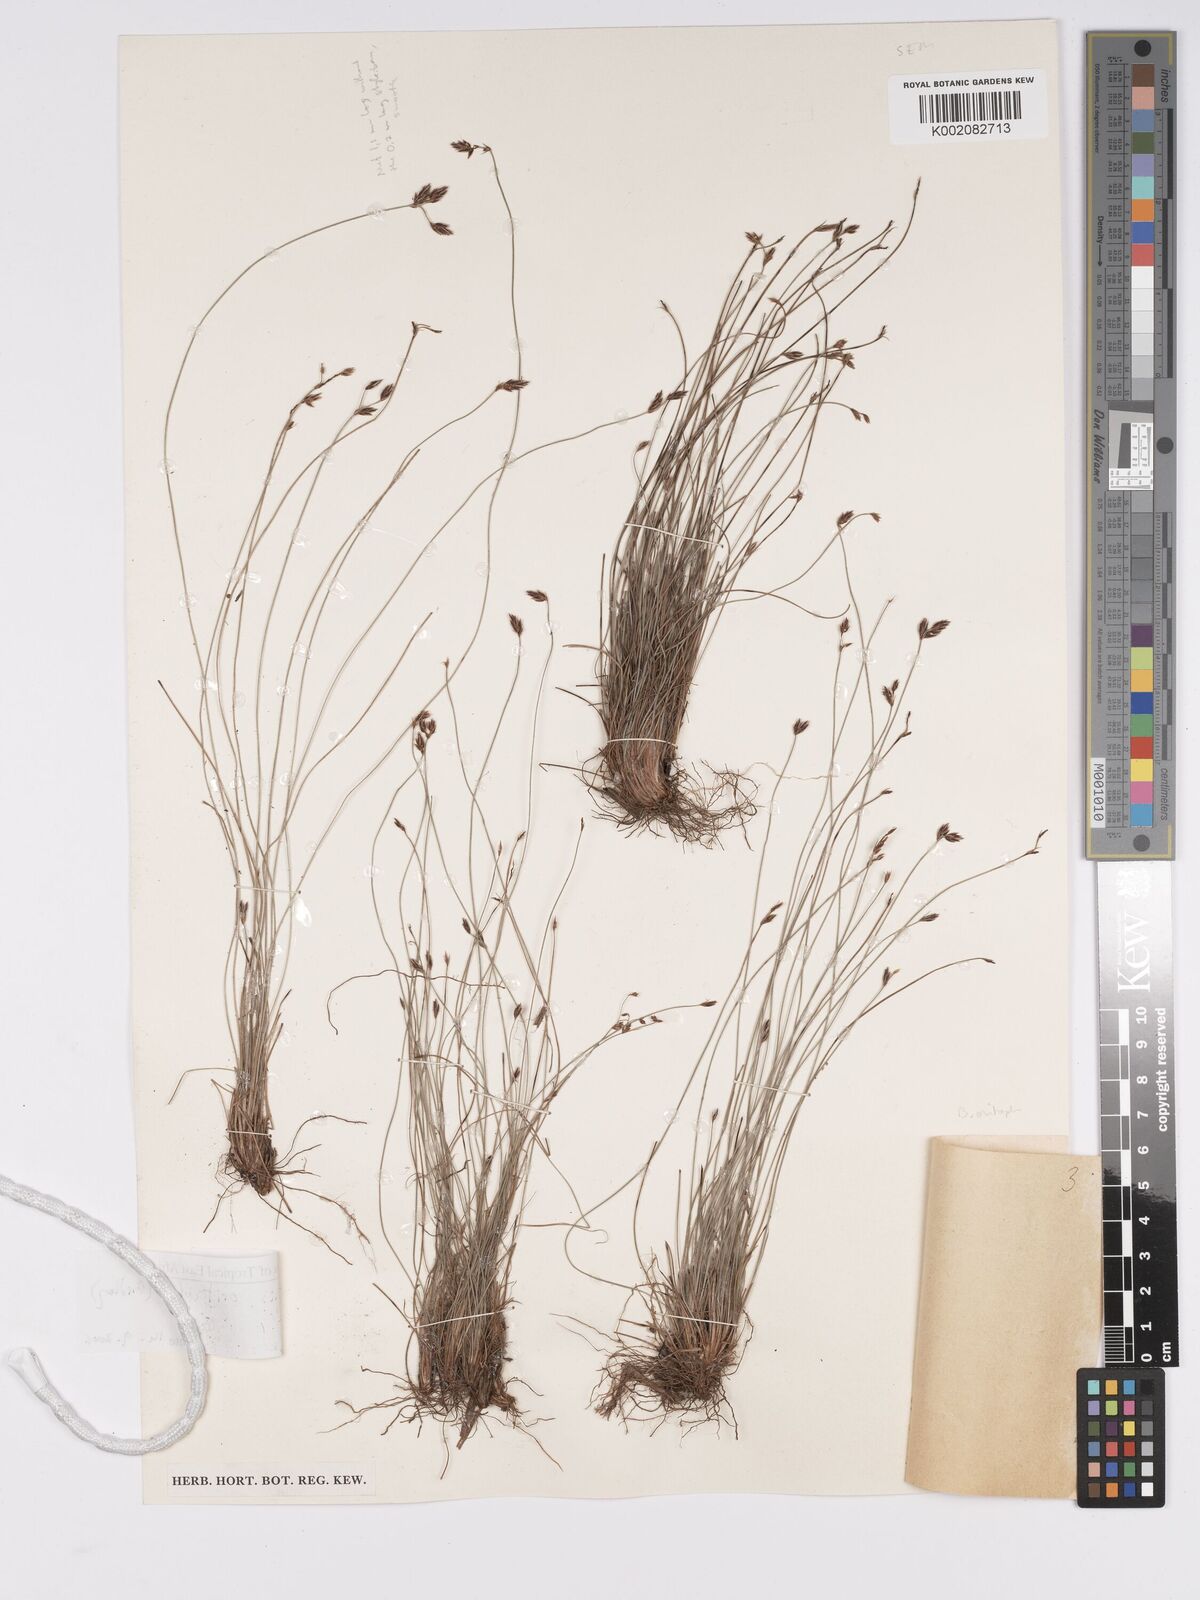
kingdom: Plantae
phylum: Tracheophyta
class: Liliopsida
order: Poales
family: Cyperaceae
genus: Bulbostylis
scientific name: Bulbostylis oritrephes
